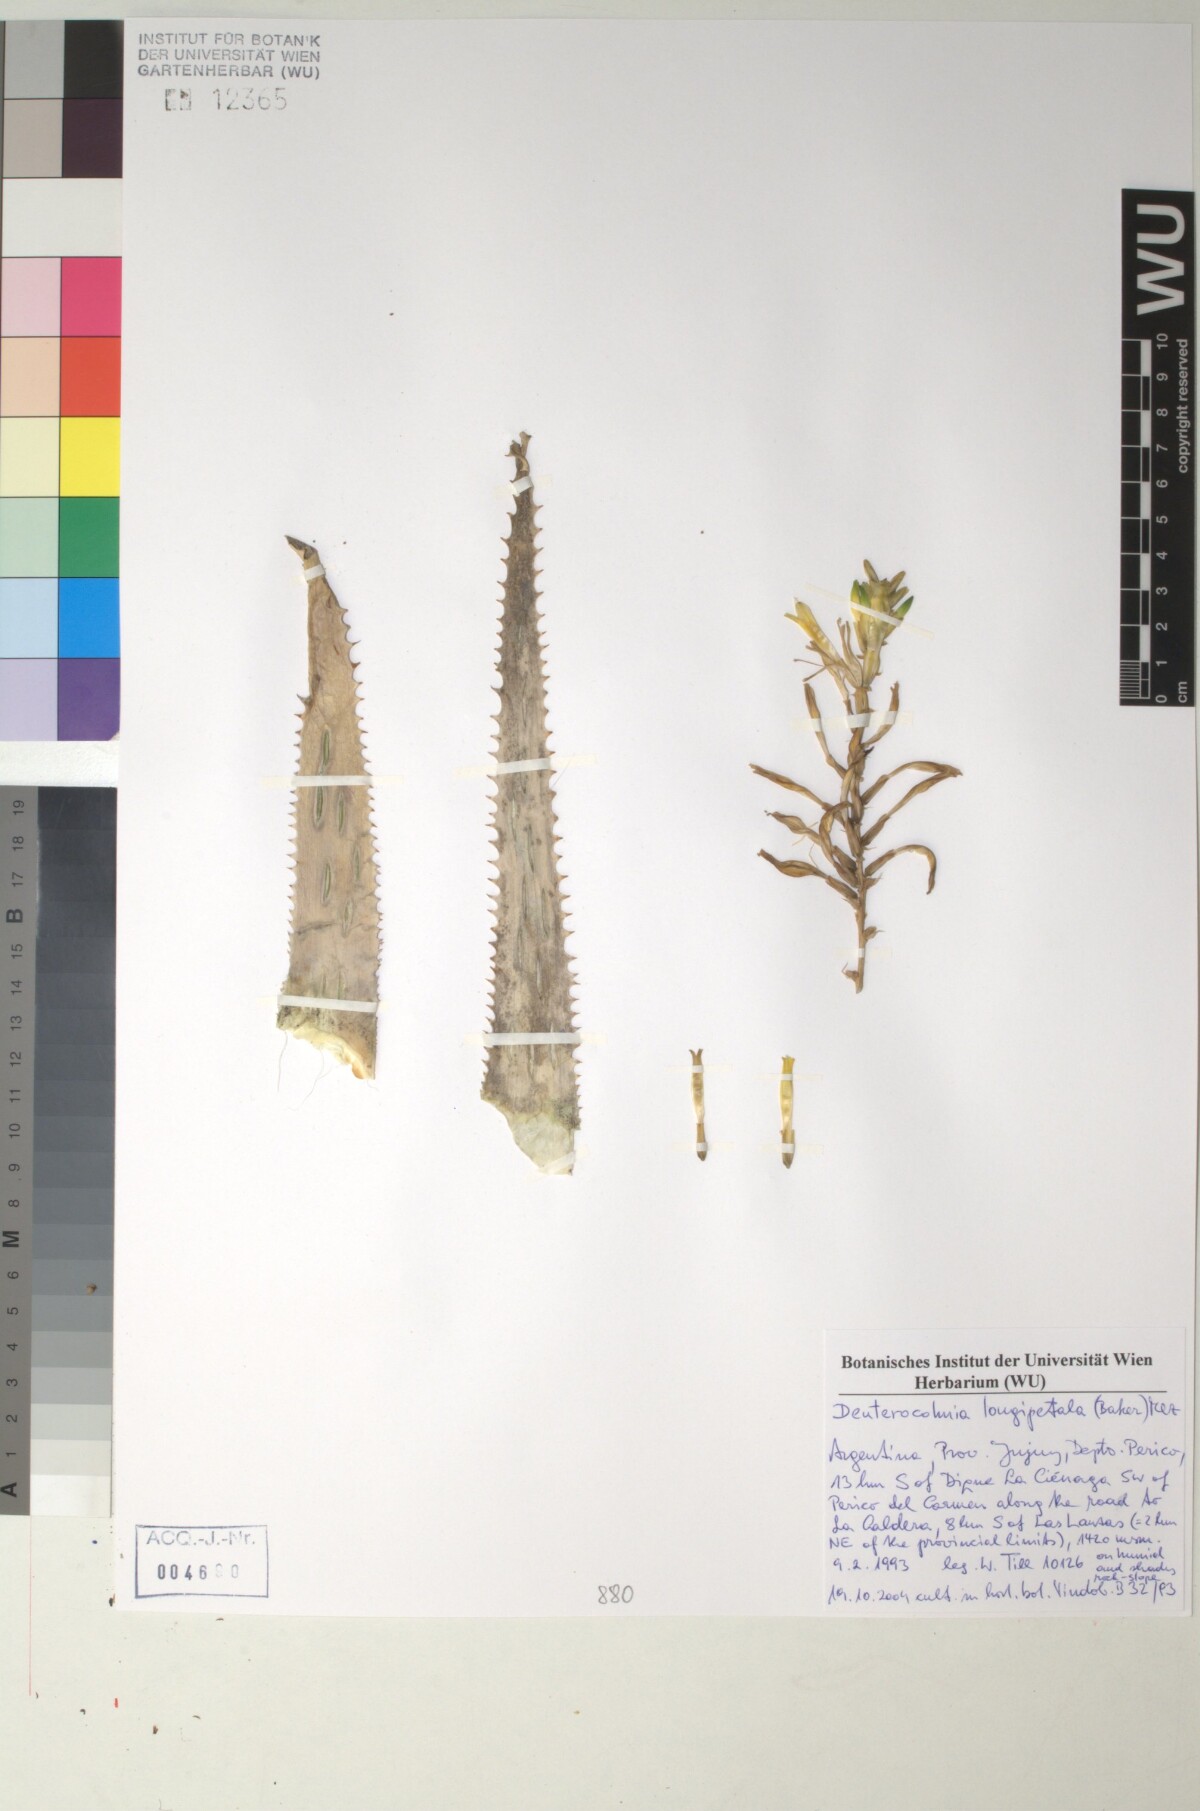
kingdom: Plantae
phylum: Tracheophyta
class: Liliopsida
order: Poales
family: Bromeliaceae
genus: Deuterocohnia
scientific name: Deuterocohnia longipetala
